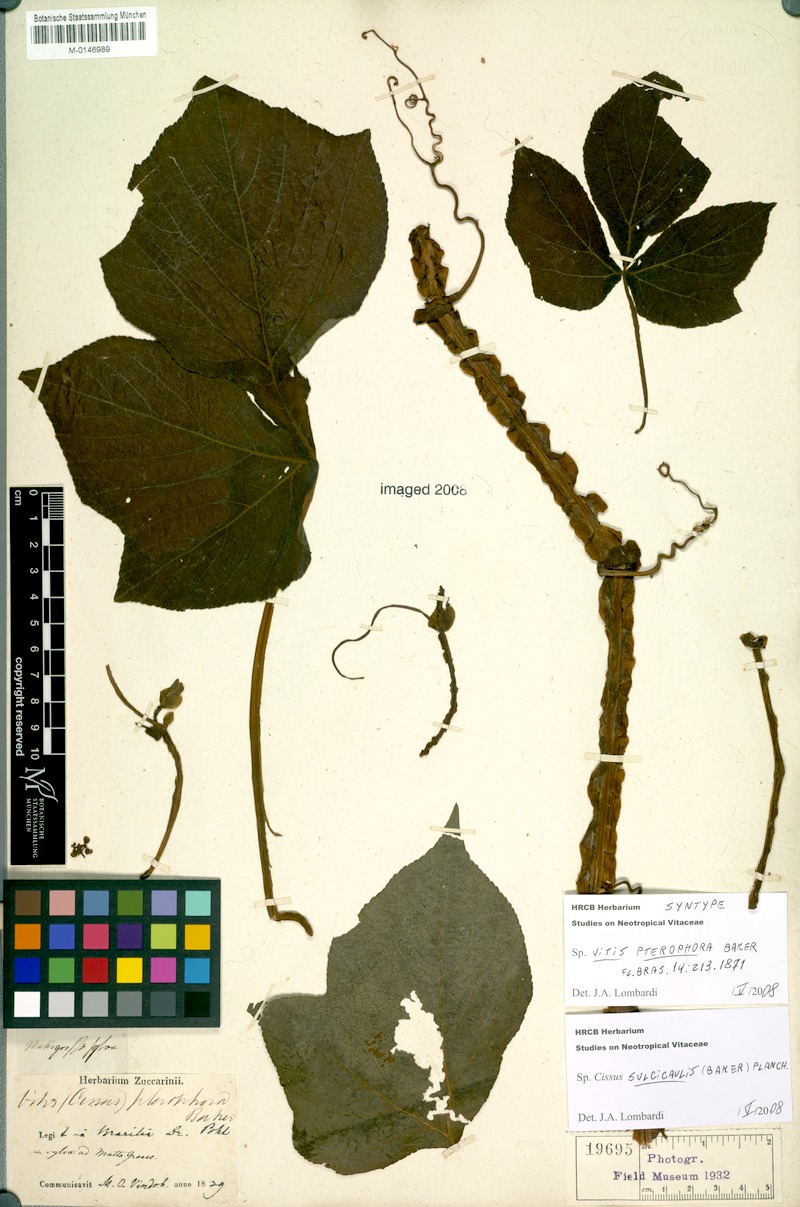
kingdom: Plantae
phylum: Tracheophyta
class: Magnoliopsida
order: Vitales
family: Vitaceae
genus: Cissus
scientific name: Cissus sulcicaulis
